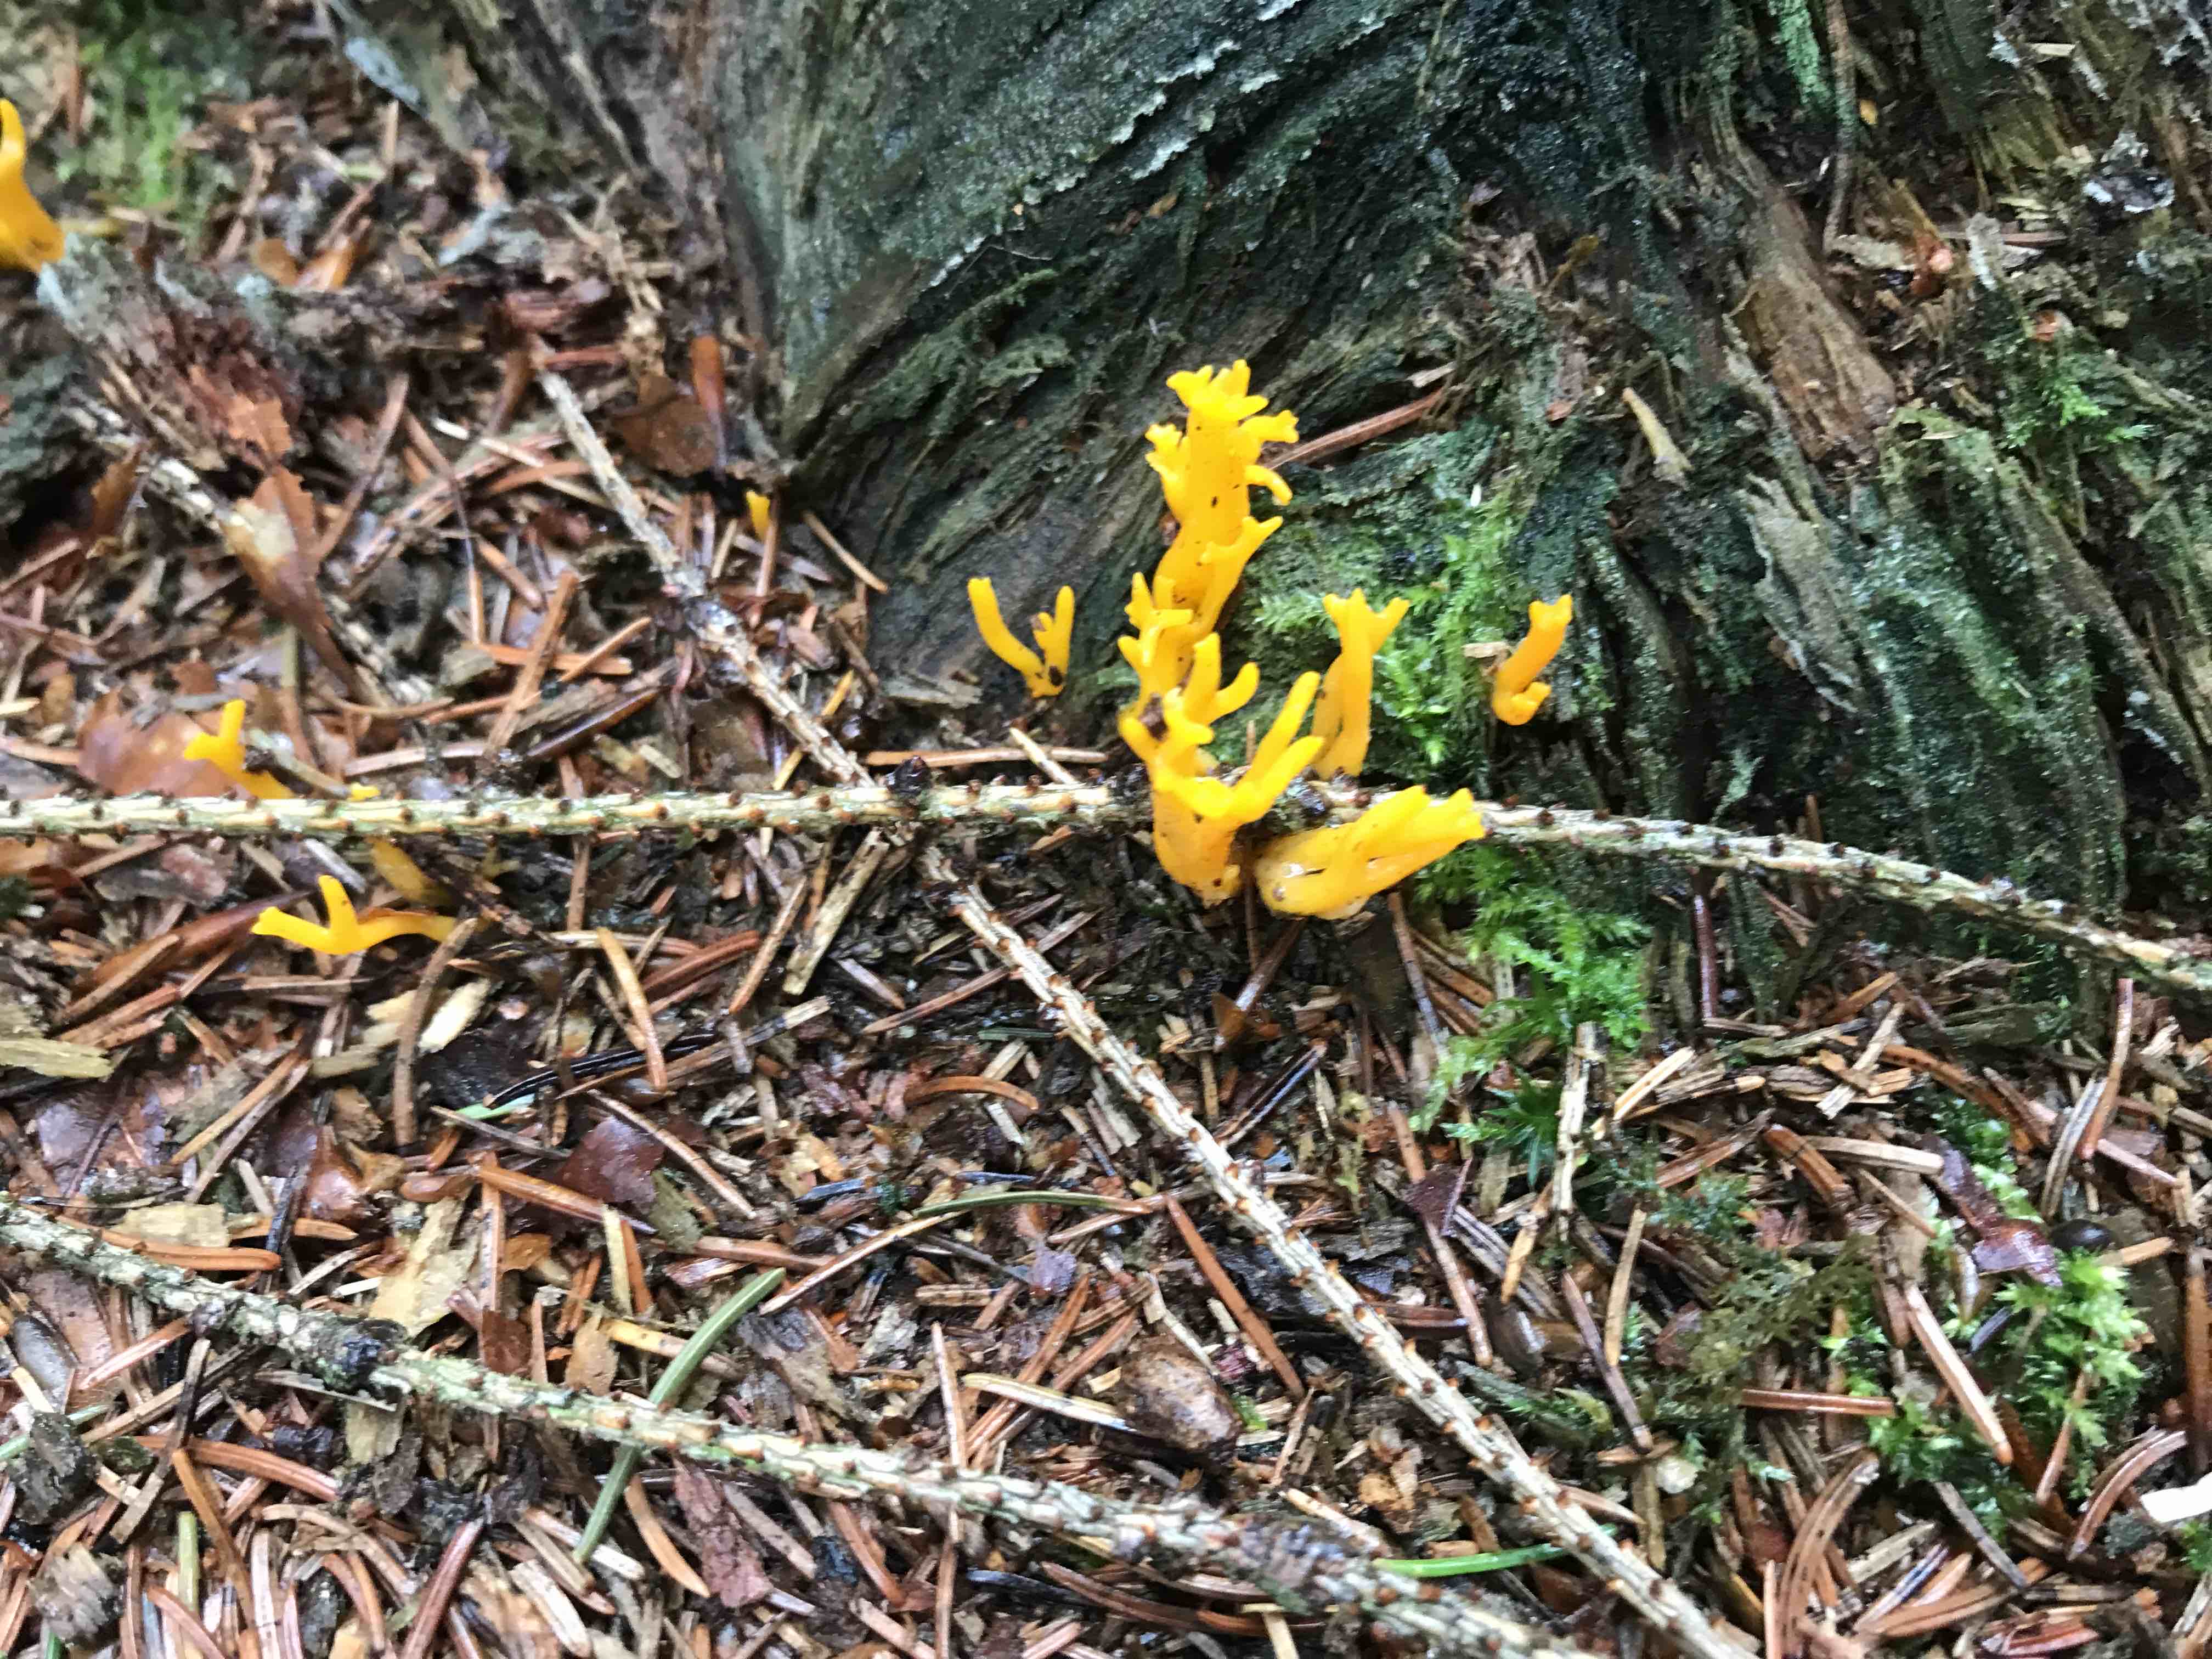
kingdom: Fungi
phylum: Basidiomycota
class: Dacrymycetes
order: Dacrymycetales
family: Dacrymycetaceae
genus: Calocera
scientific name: Calocera viscosa
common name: almindelig guldgaffel
